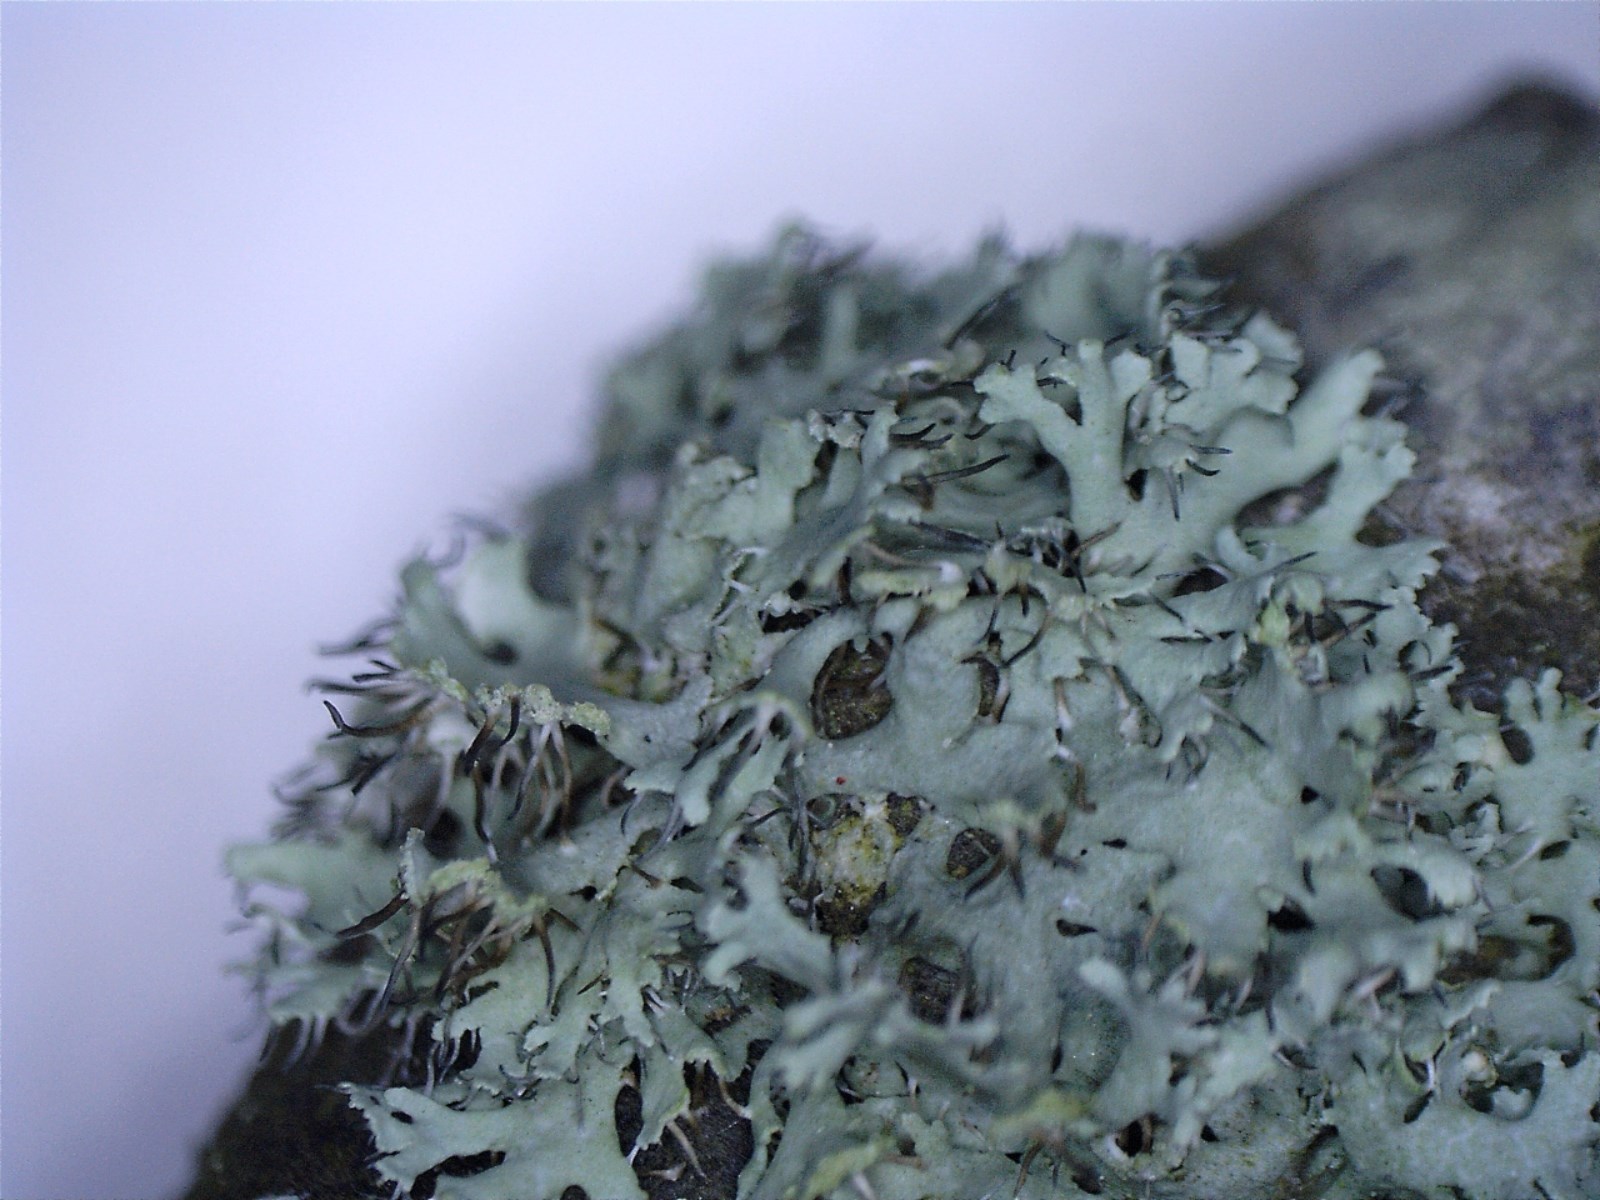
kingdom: Fungi
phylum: Ascomycota
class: Lecanoromycetes
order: Caliciales
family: Physciaceae
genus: Physcia
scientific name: Physcia tenella
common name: spæd rosetlav
